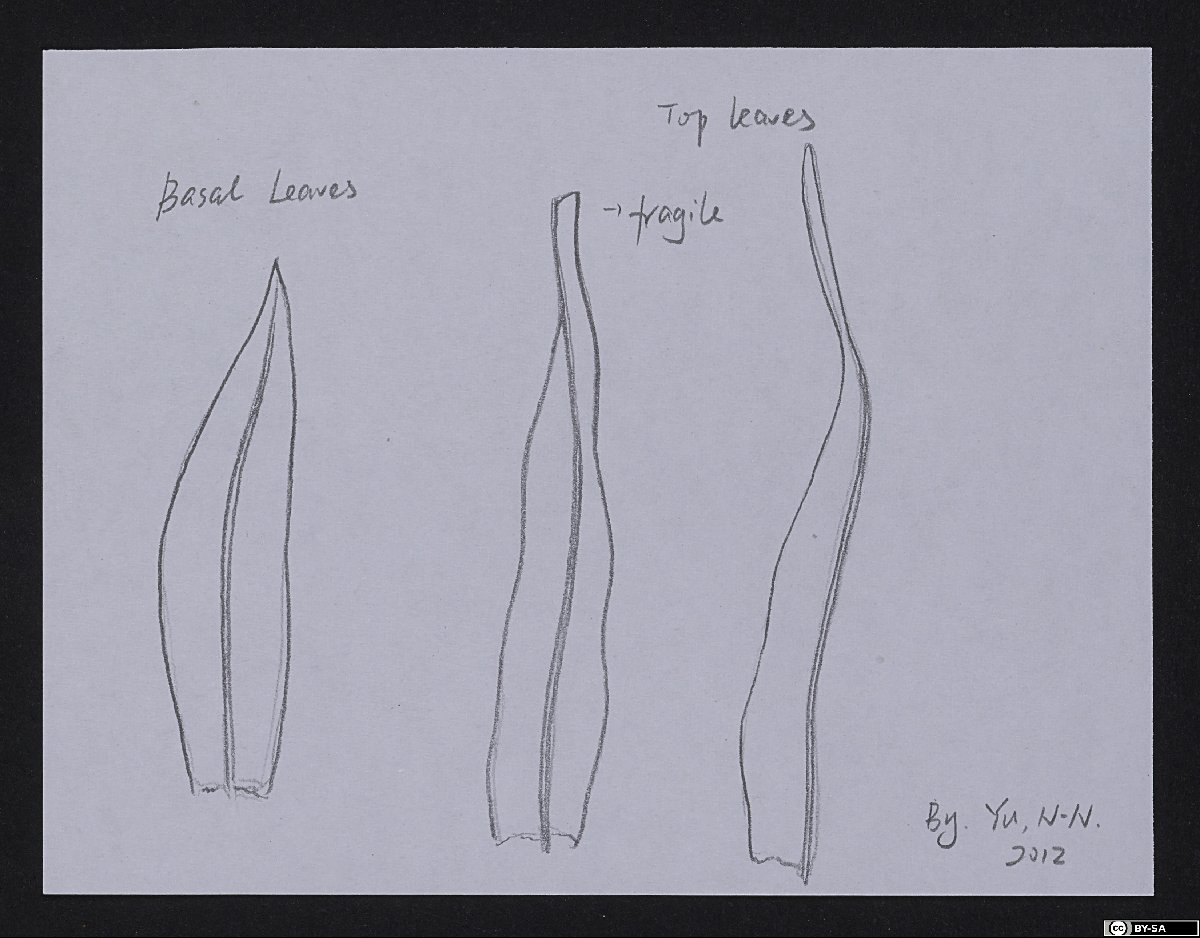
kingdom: Plantae
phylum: Bryophyta
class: Bryopsida
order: Orthotrichales
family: Orthotrichaceae
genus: Groutiella
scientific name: Groutiella subgoniorrhyncha
